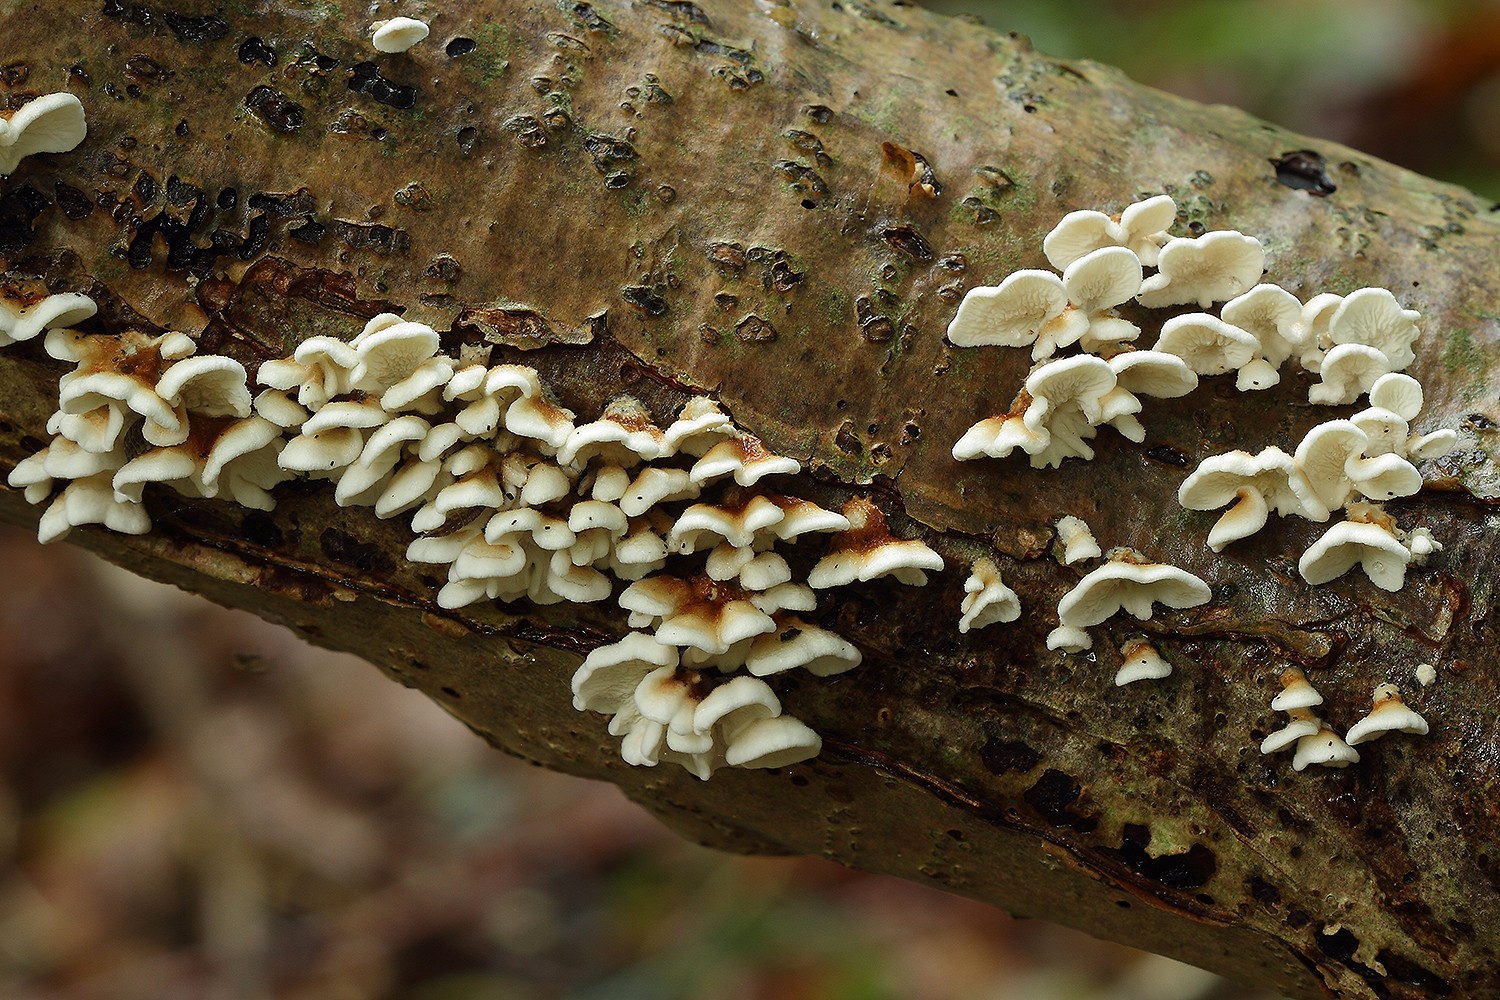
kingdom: Fungi
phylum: Basidiomycota
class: Agaricomycetes
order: Amylocorticiales
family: Amylocorticiaceae
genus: Plicaturopsis
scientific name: Plicaturopsis crispa
